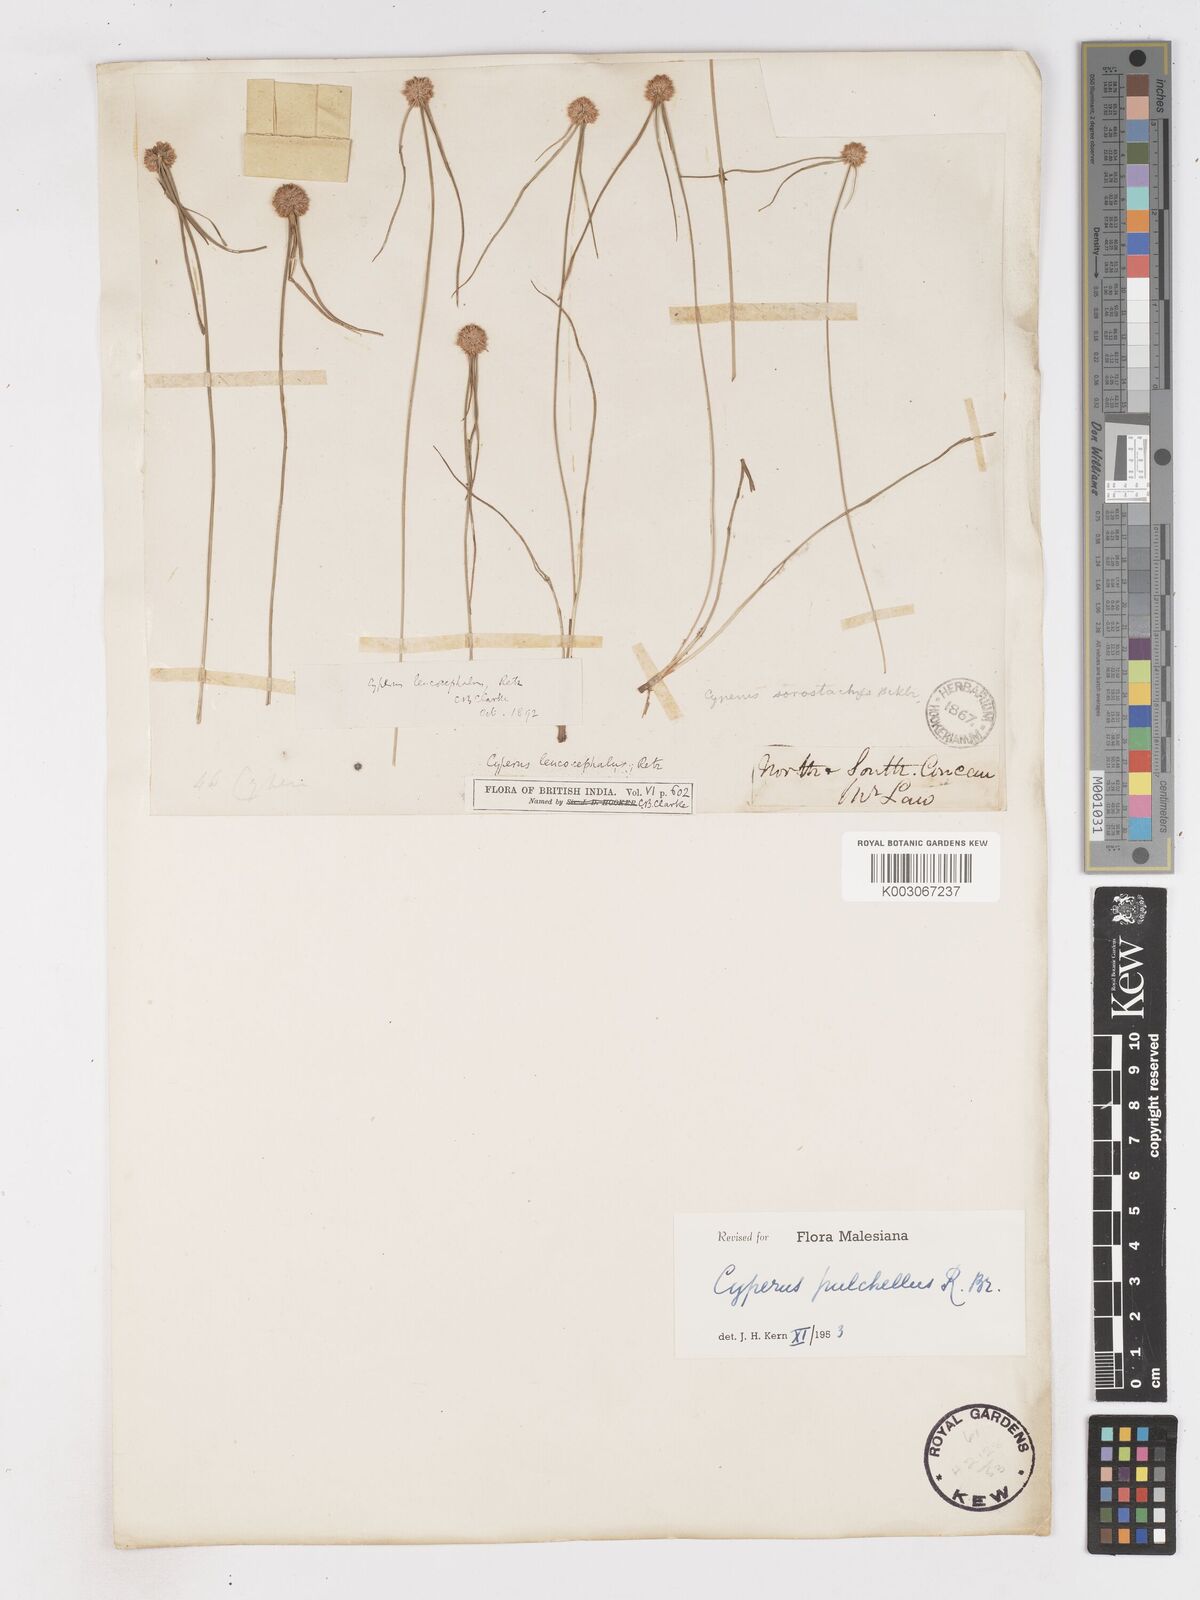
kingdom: Plantae
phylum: Tracheophyta
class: Liliopsida
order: Poales
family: Cyperaceae
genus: Cyperus
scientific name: Cyperus pulchellus
